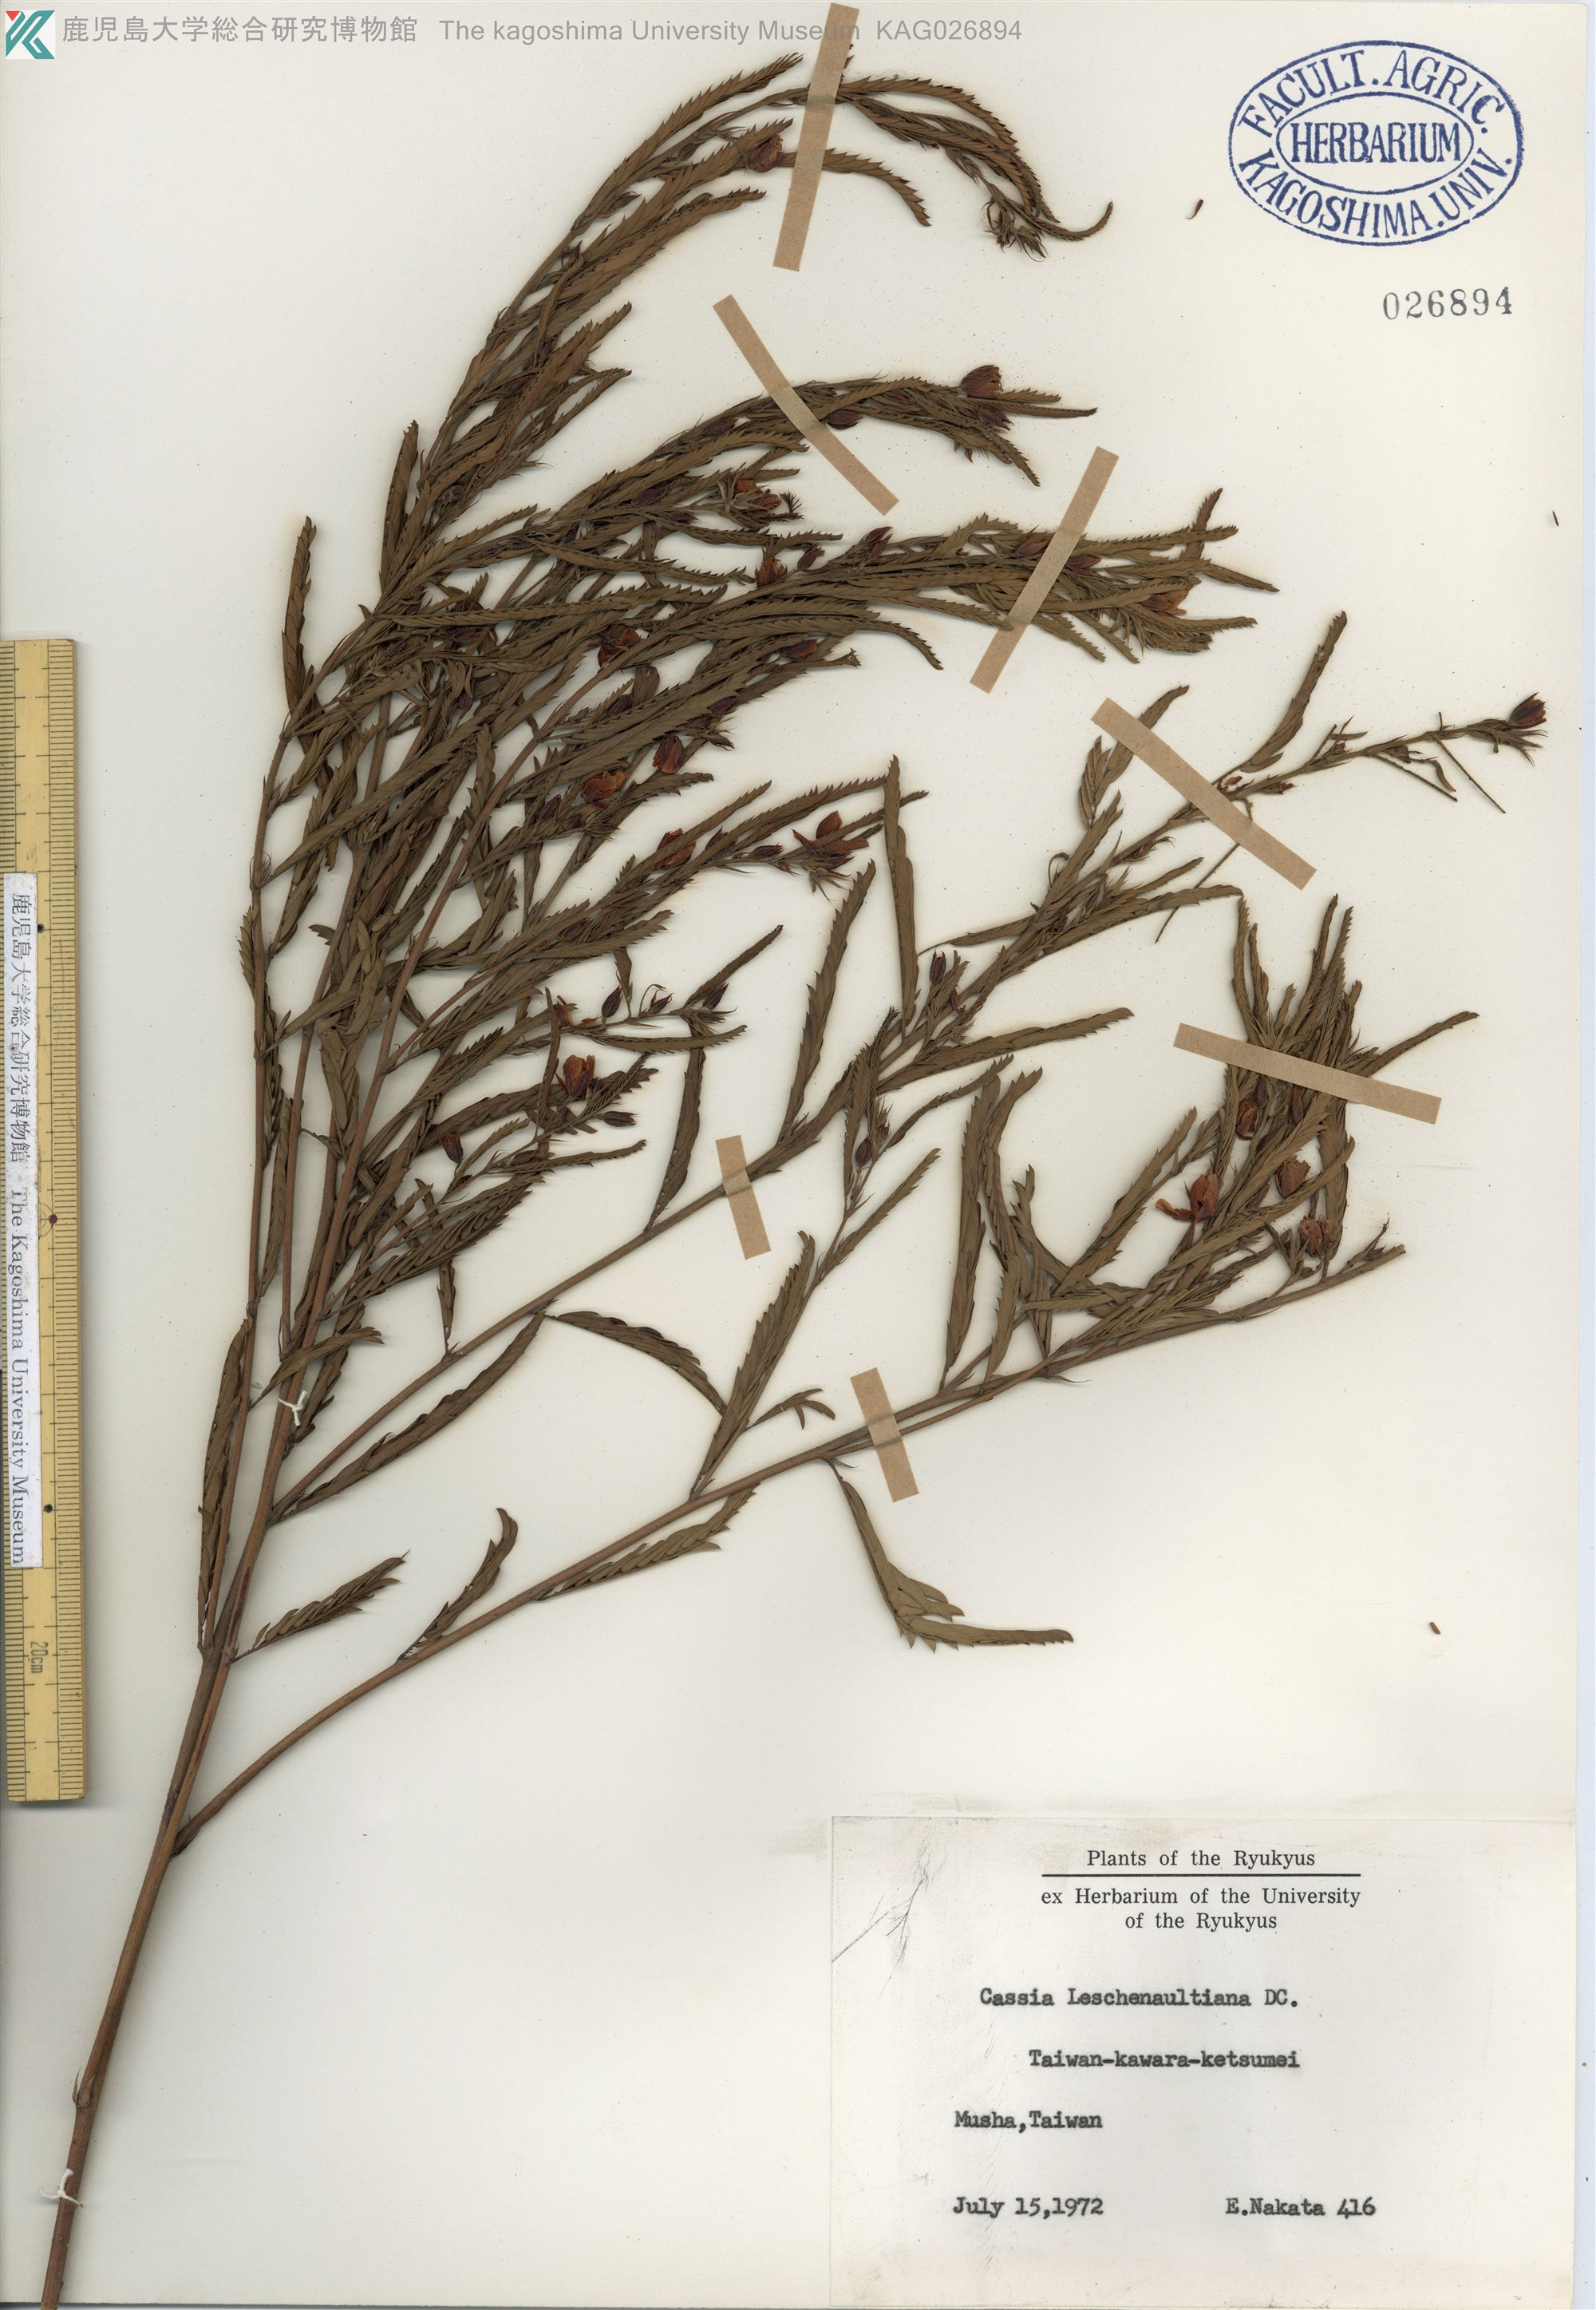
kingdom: Plantae
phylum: Tracheophyta
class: Magnoliopsida
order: Fabales
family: Fabaceae
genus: Chamaecrista
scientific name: Chamaecrista leschenaultiana
